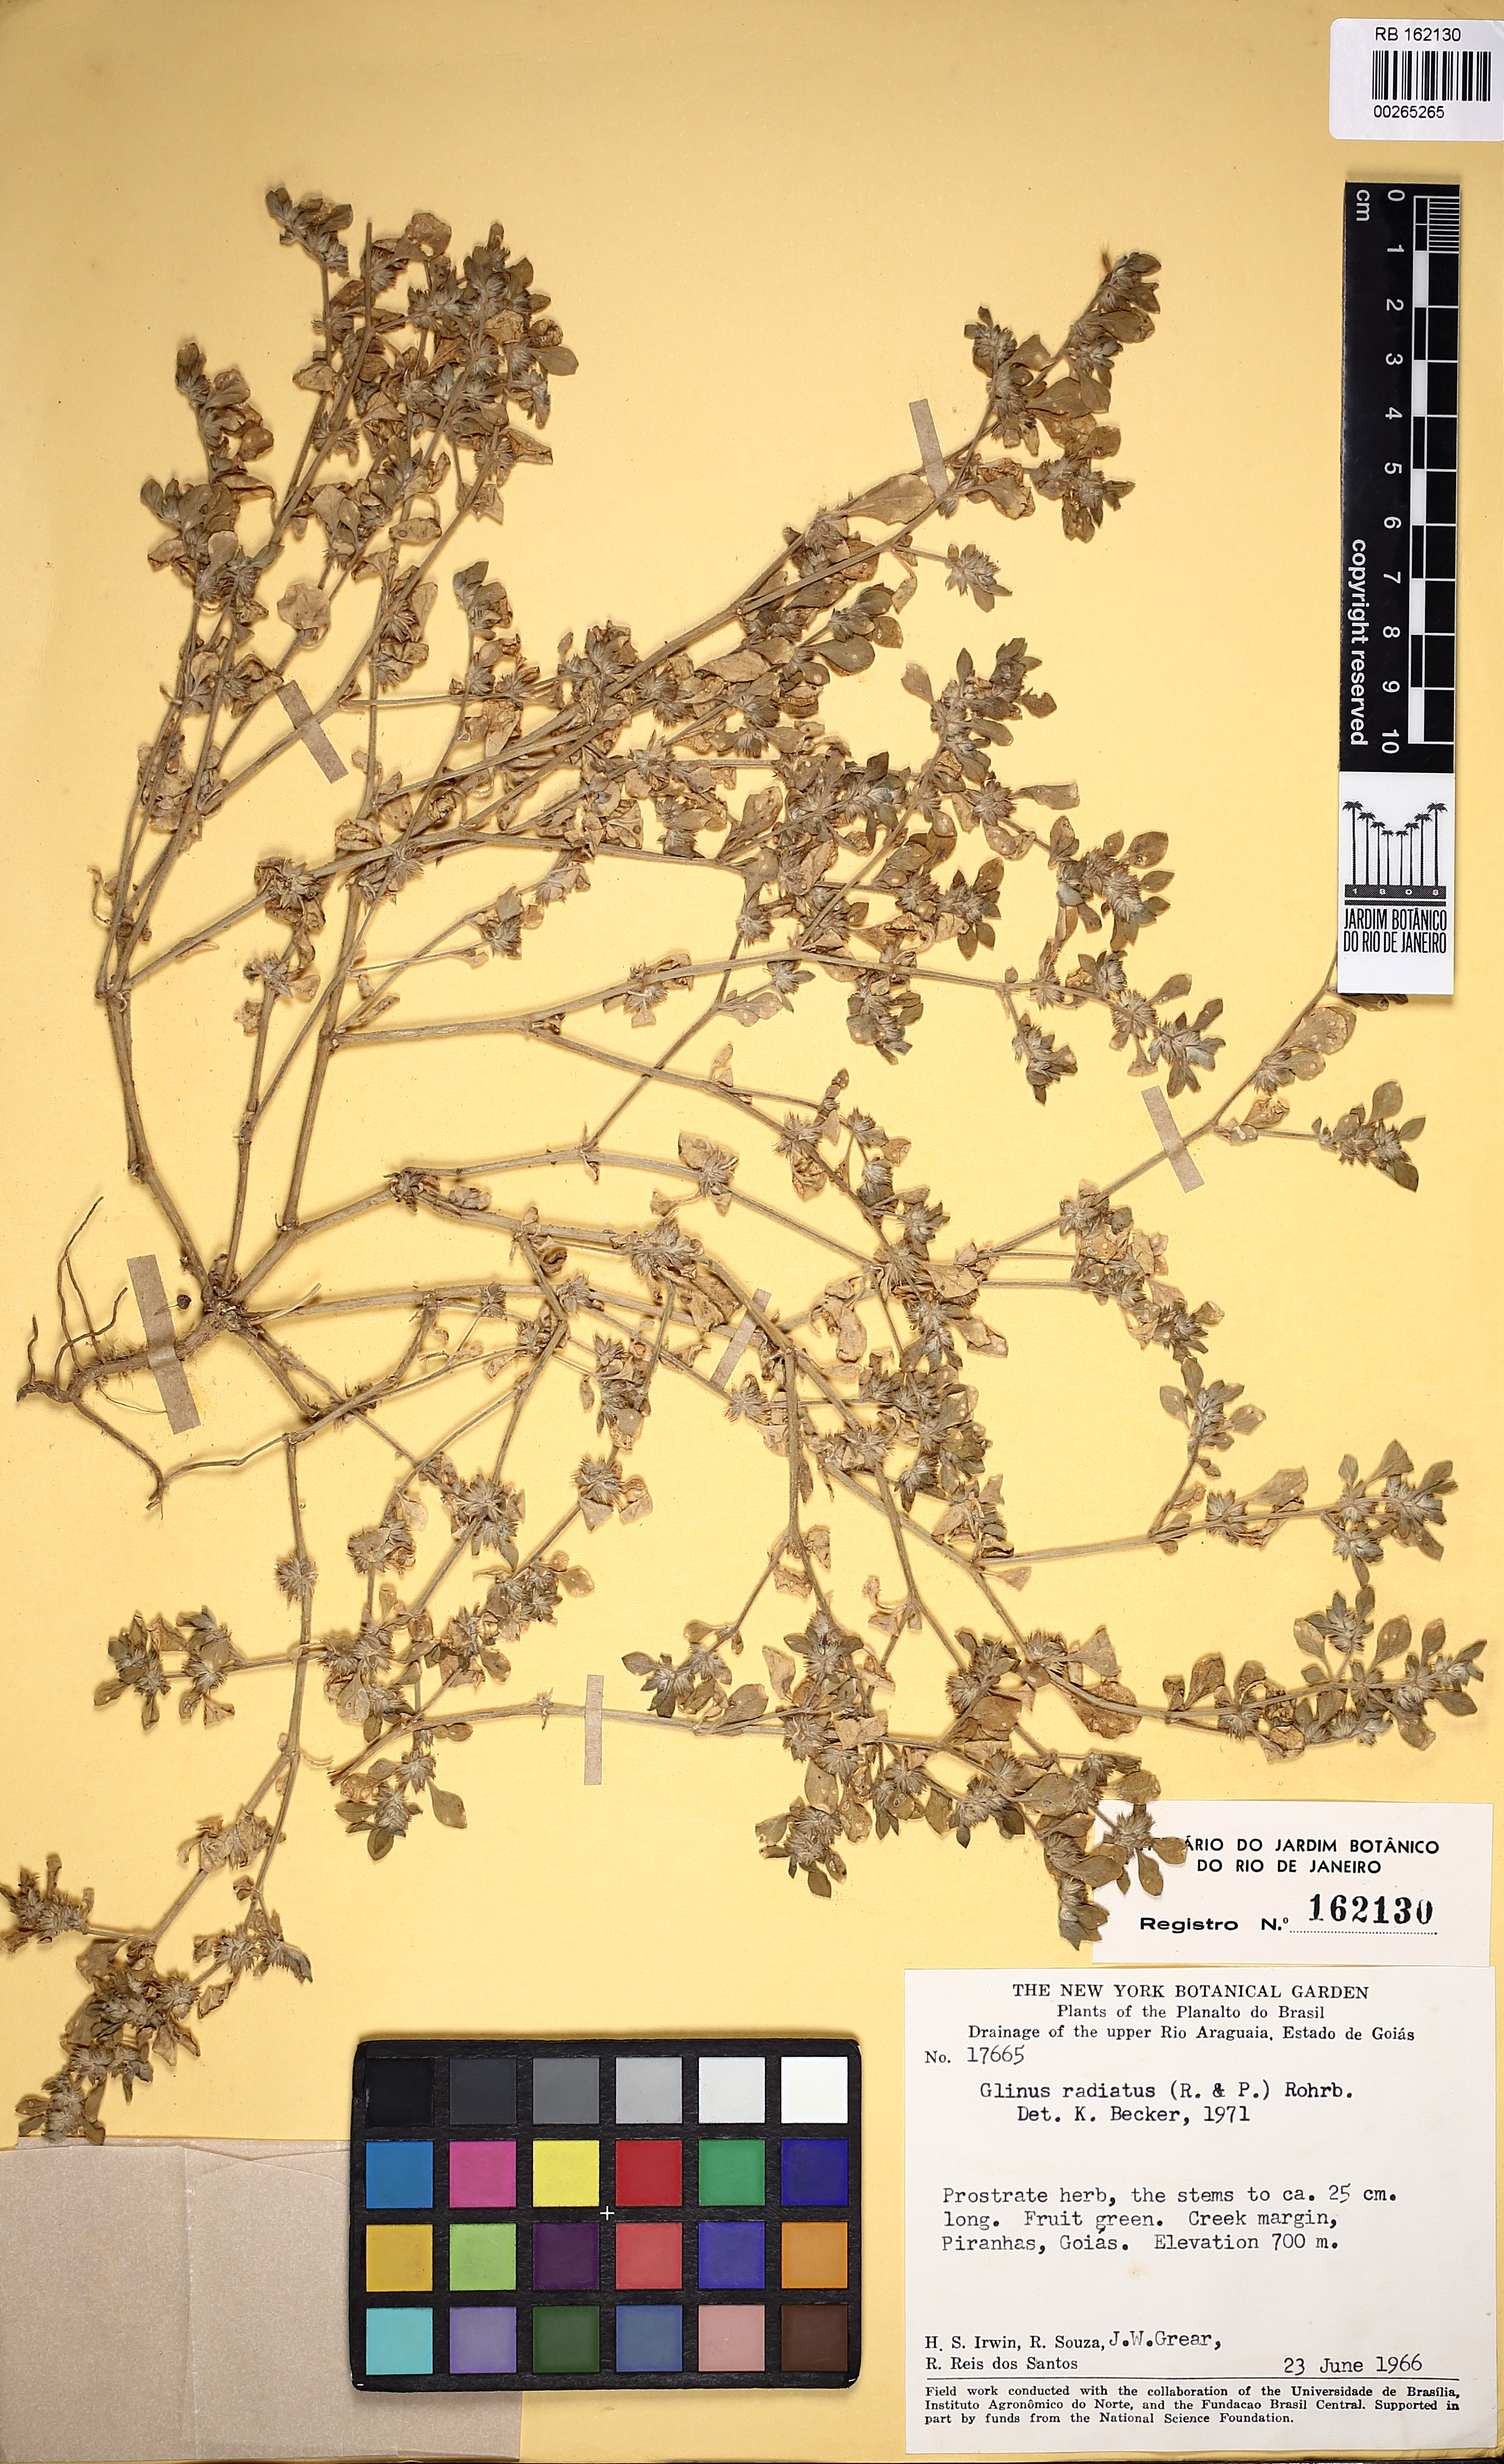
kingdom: Plantae
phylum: Tracheophyta
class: Magnoliopsida
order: Caryophyllales
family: Molluginaceae
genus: Glinus
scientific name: Glinus radiatus
